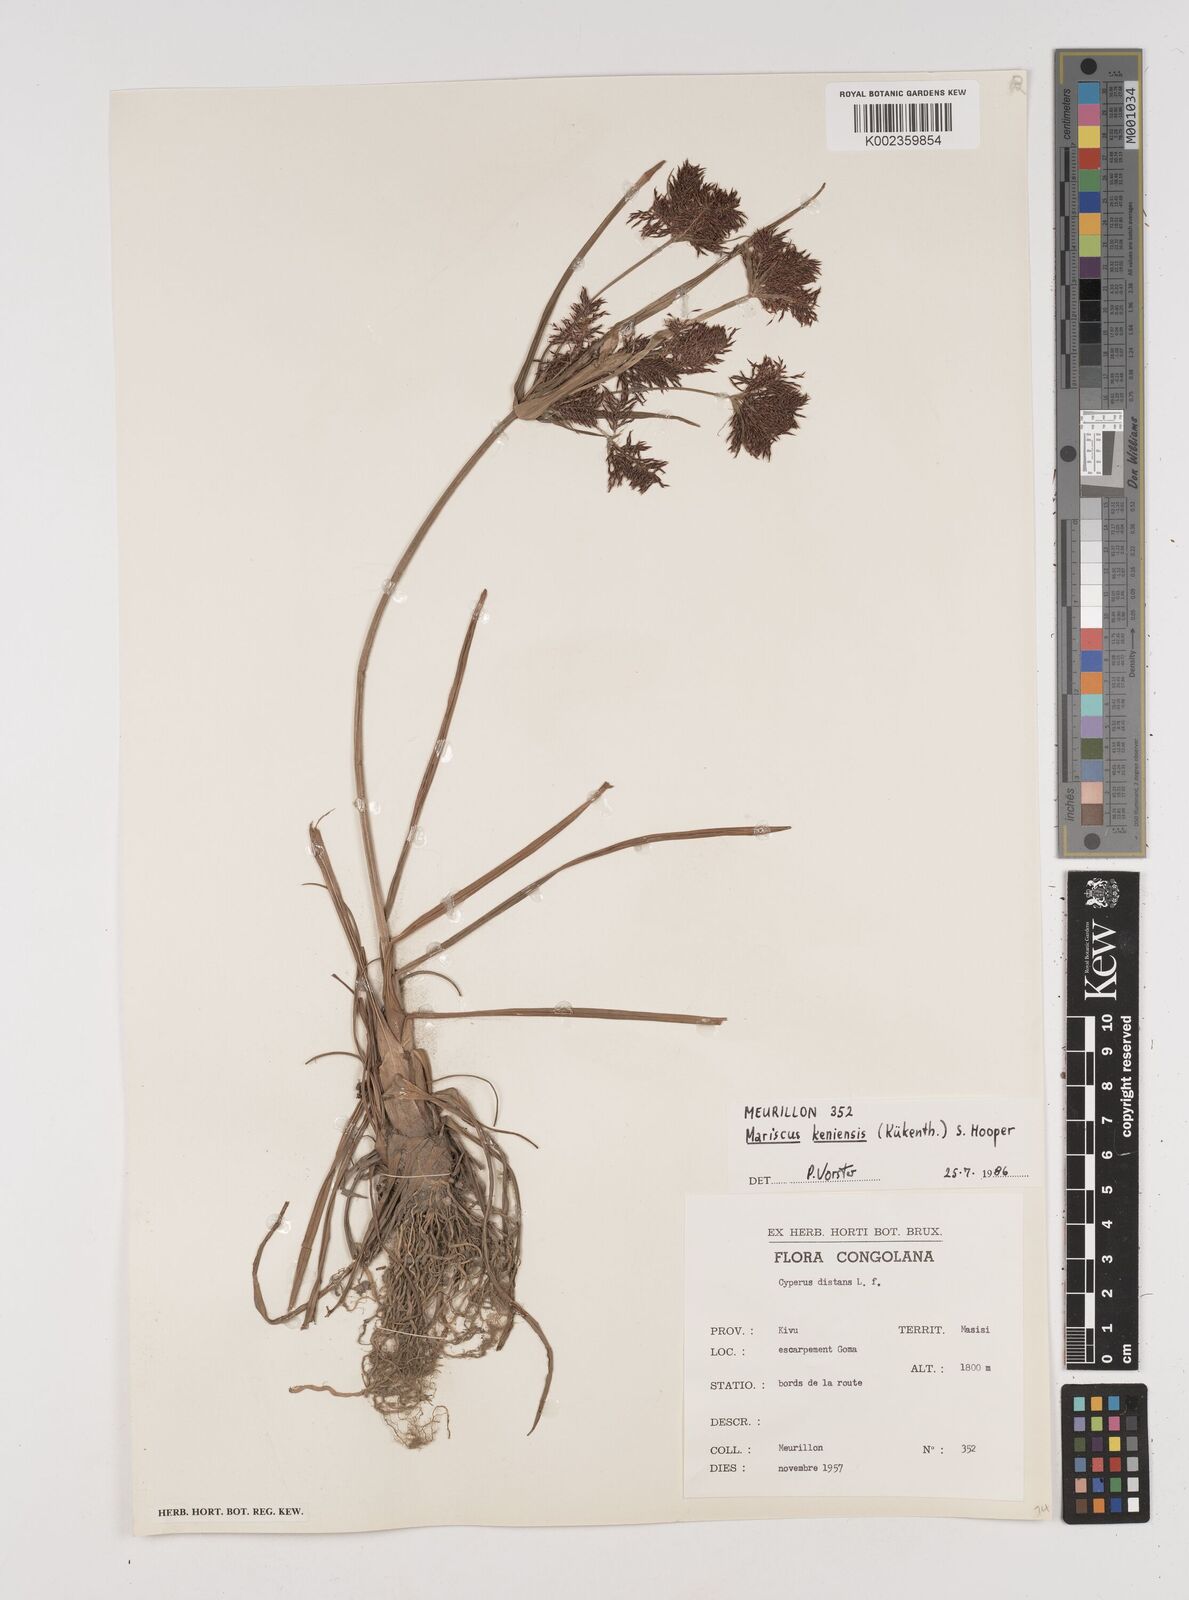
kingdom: Plantae
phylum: Tracheophyta
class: Liliopsida
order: Poales
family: Cyperaceae
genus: Cyperus
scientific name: Cyperus distans
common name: Slender cyperus
